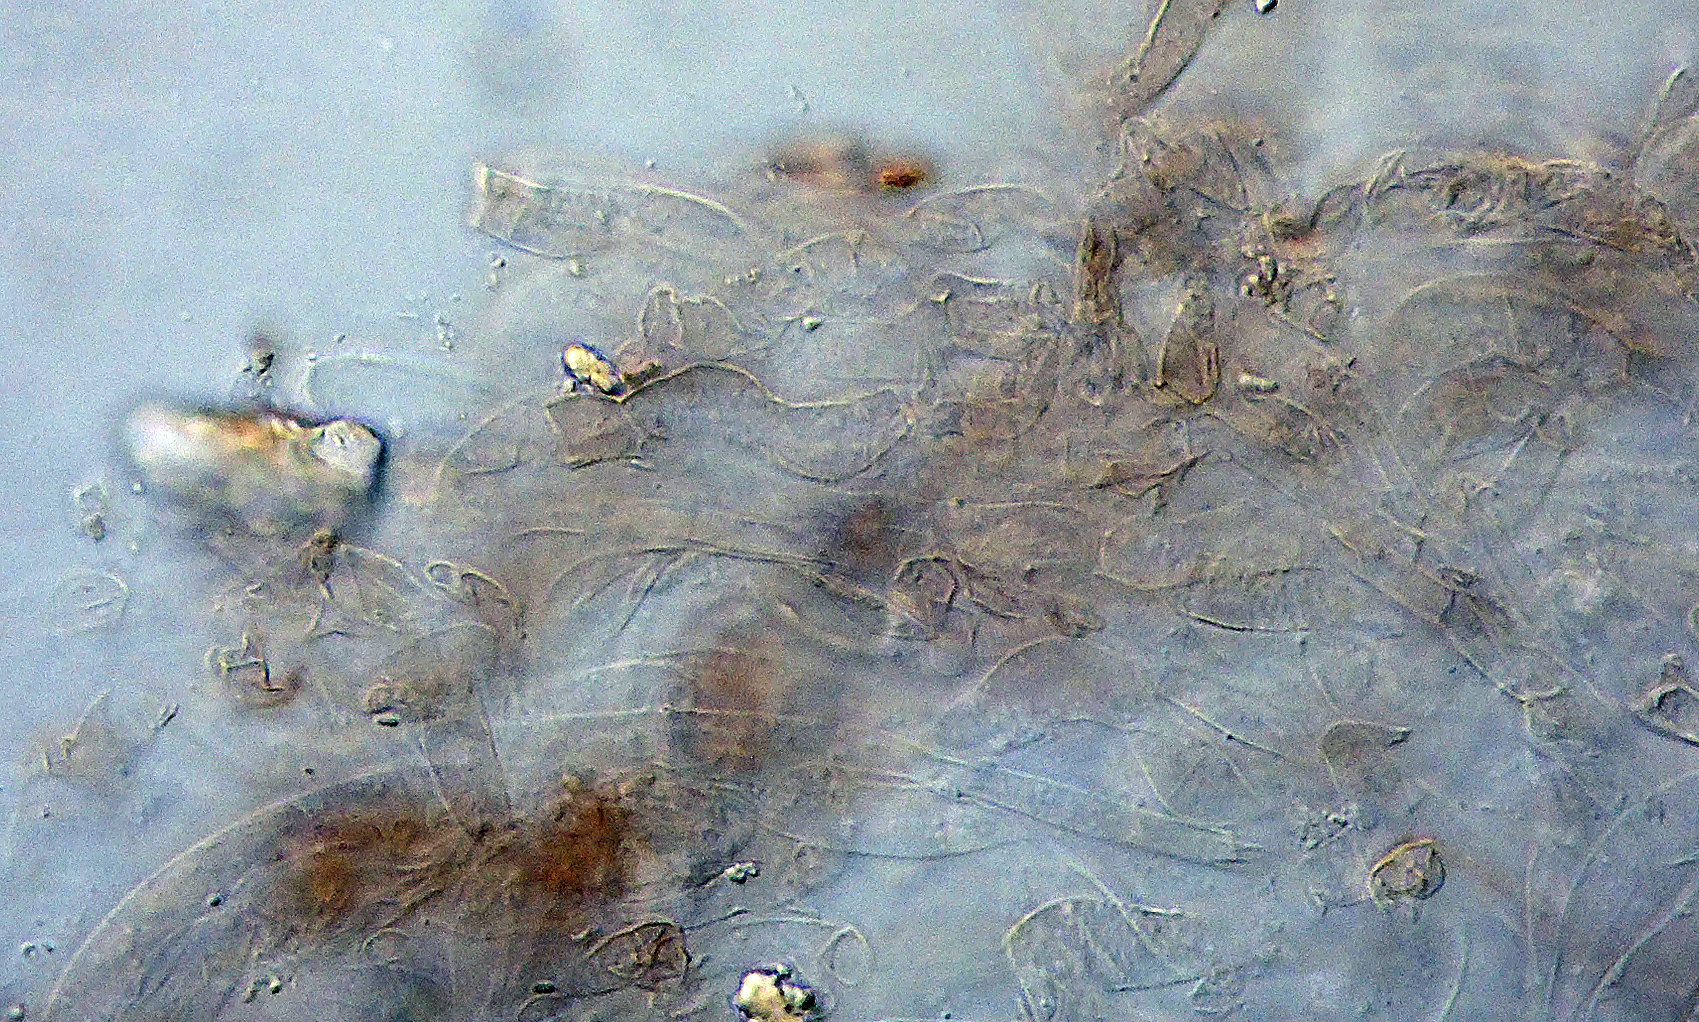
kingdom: Fungi
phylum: Basidiomycota
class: Agaricomycetes
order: Agaricales
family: Hygrophoraceae
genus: Arrhenia
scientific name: Arrhenia rustica
